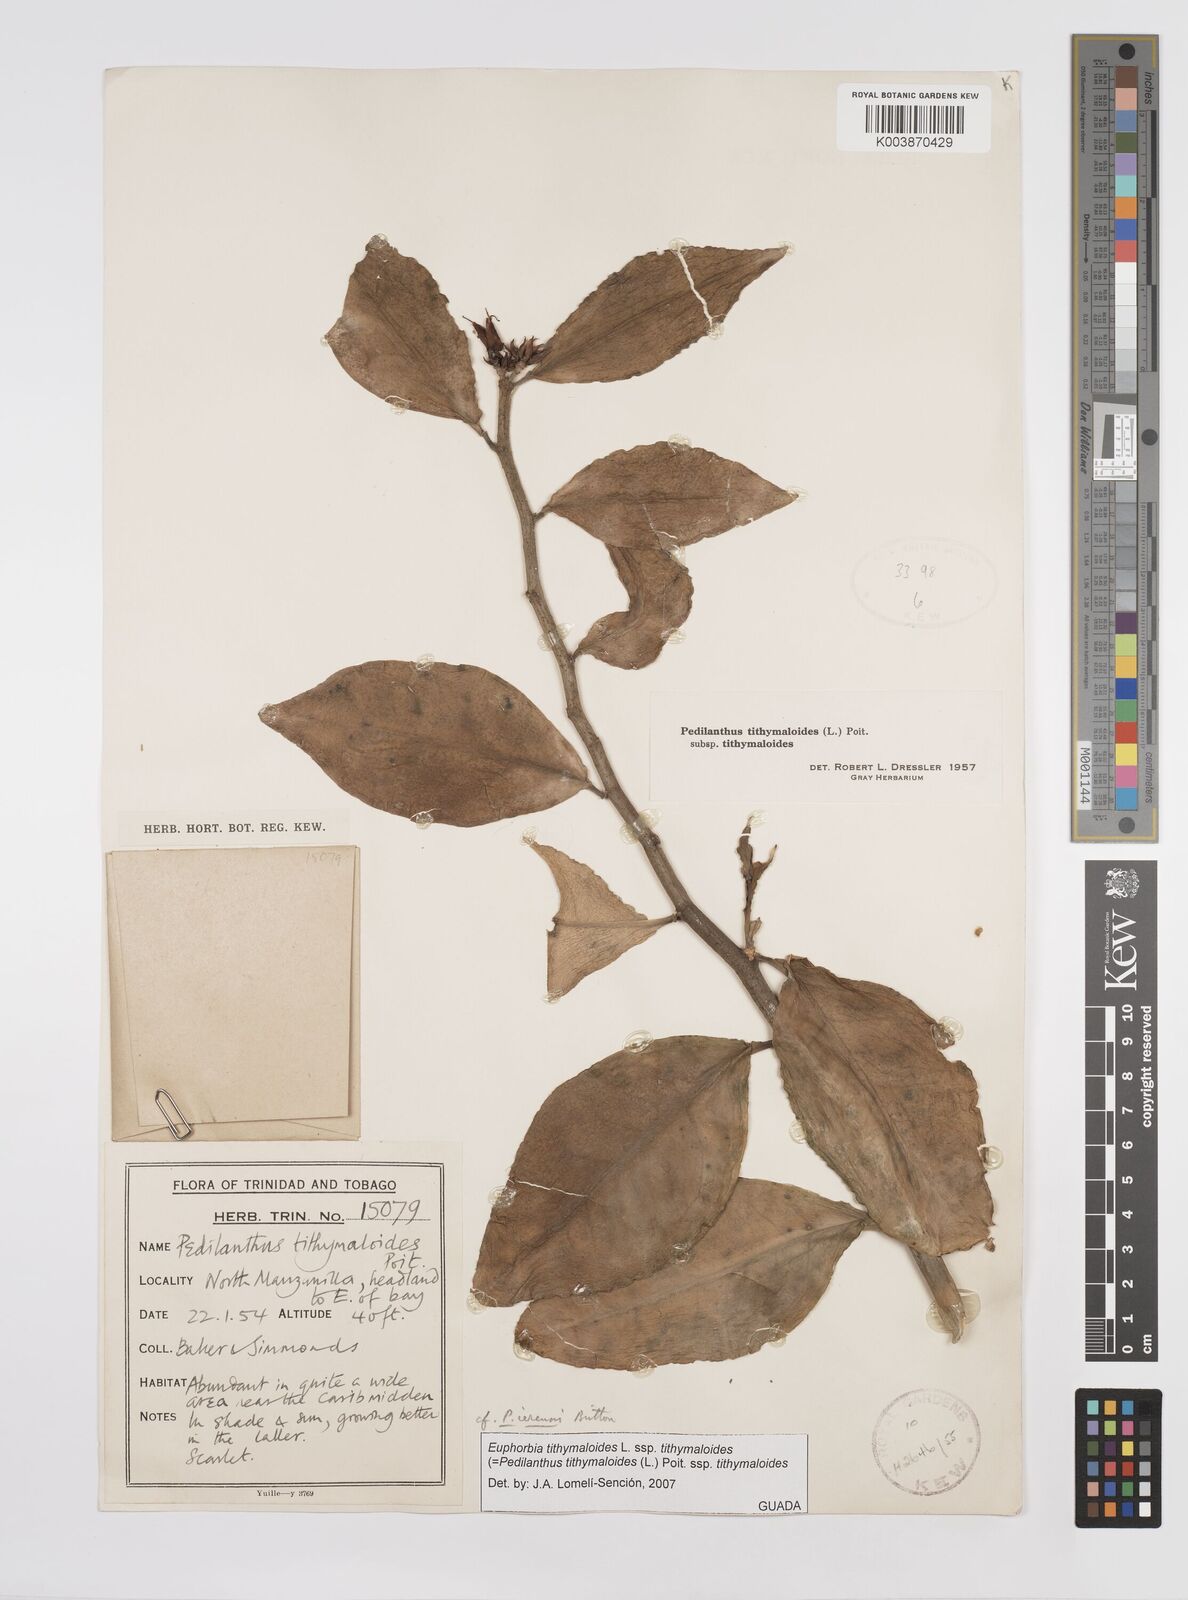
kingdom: Plantae
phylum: Tracheophyta
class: Magnoliopsida
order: Malpighiales
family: Euphorbiaceae
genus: Euphorbia
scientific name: Euphorbia tithymaloides
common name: Slipperplant
